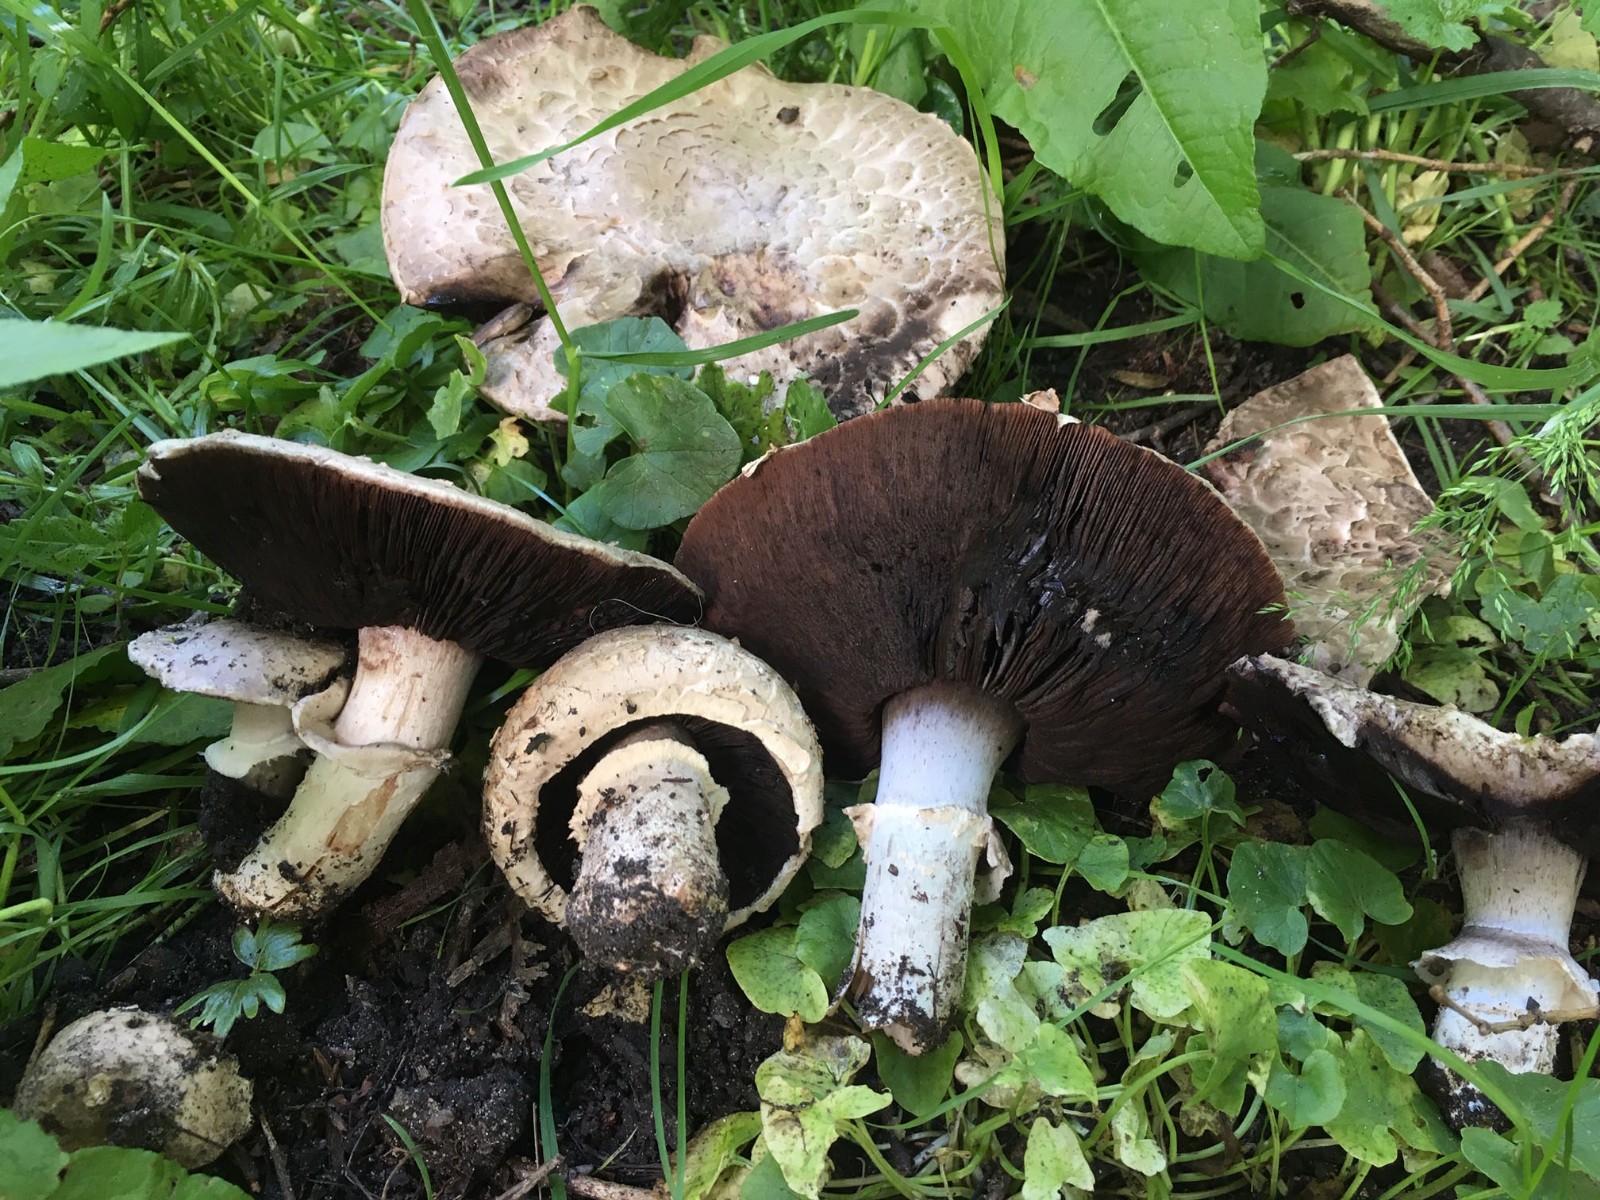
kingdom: Fungi
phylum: Basidiomycota
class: Agaricomycetes
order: Agaricales
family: Agaricaceae
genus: Agaricus
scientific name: Agaricus bernardii
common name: strandengs-champignon
